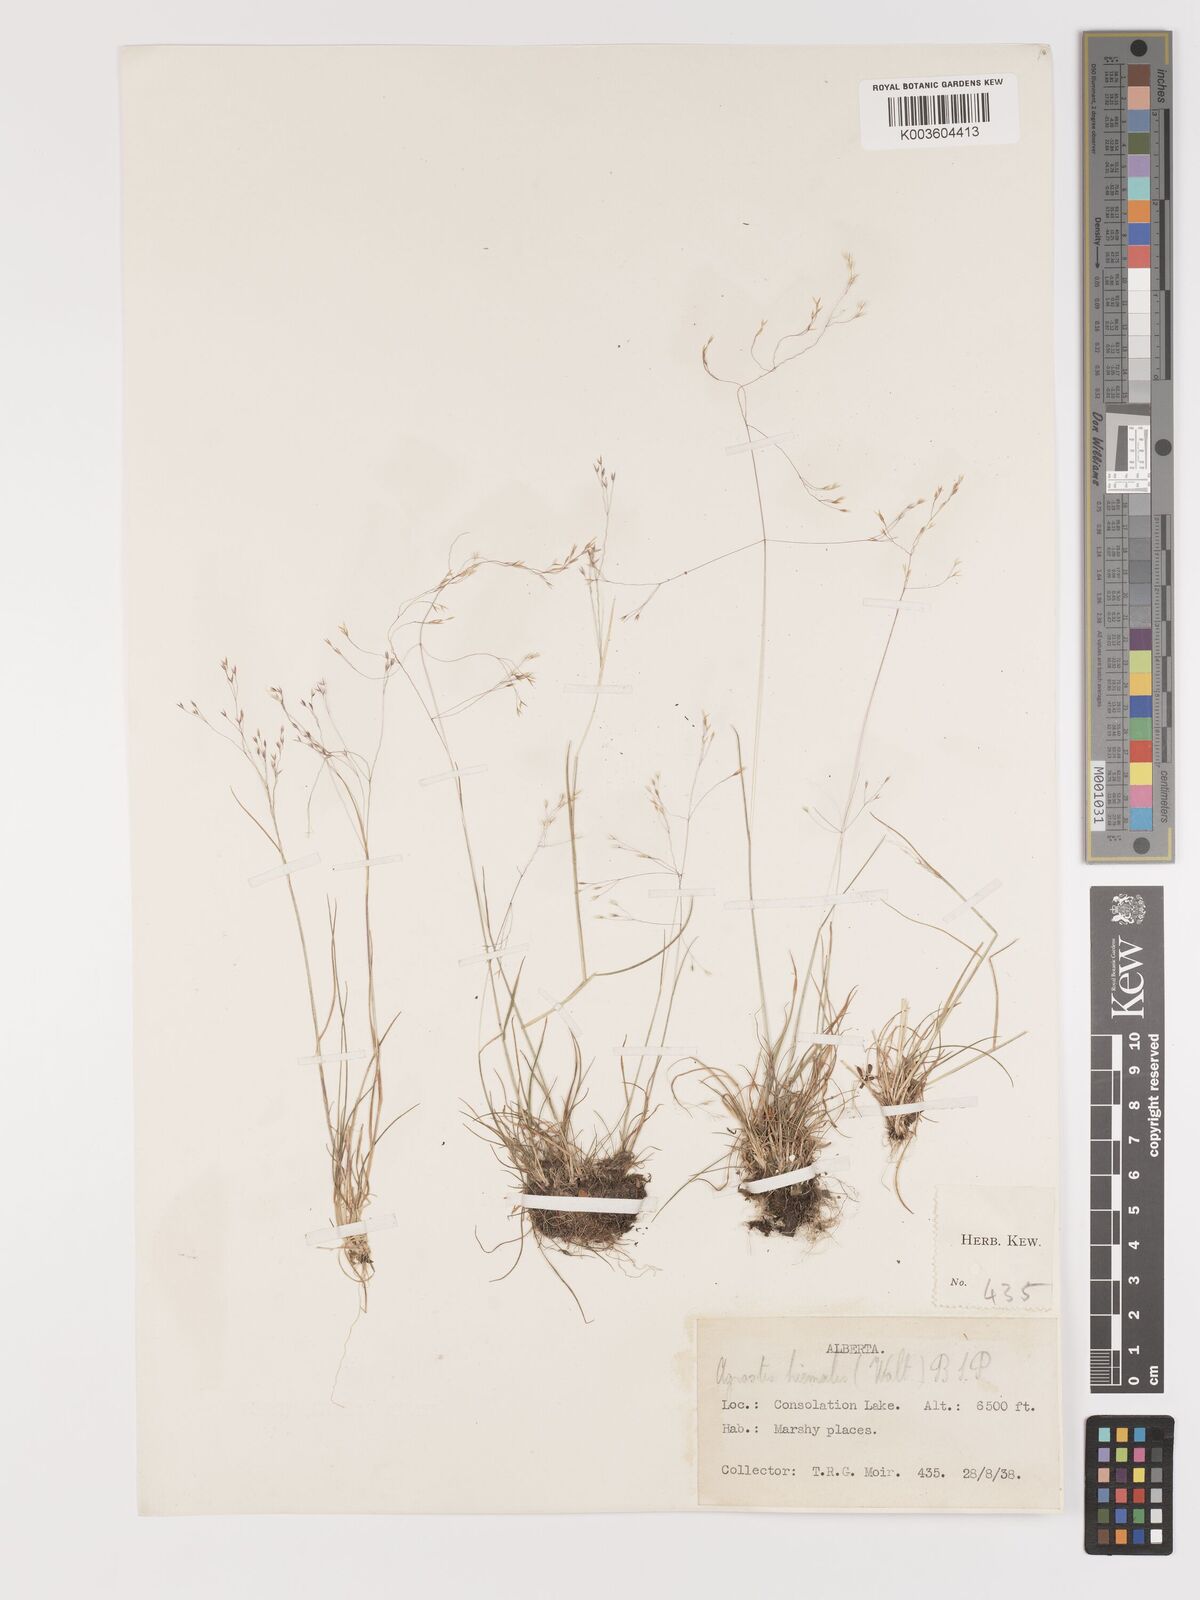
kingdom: Plantae
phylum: Tracheophyta
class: Liliopsida
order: Poales
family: Poaceae
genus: Agrostis
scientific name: Agrostis hyemalis
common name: Small bent
